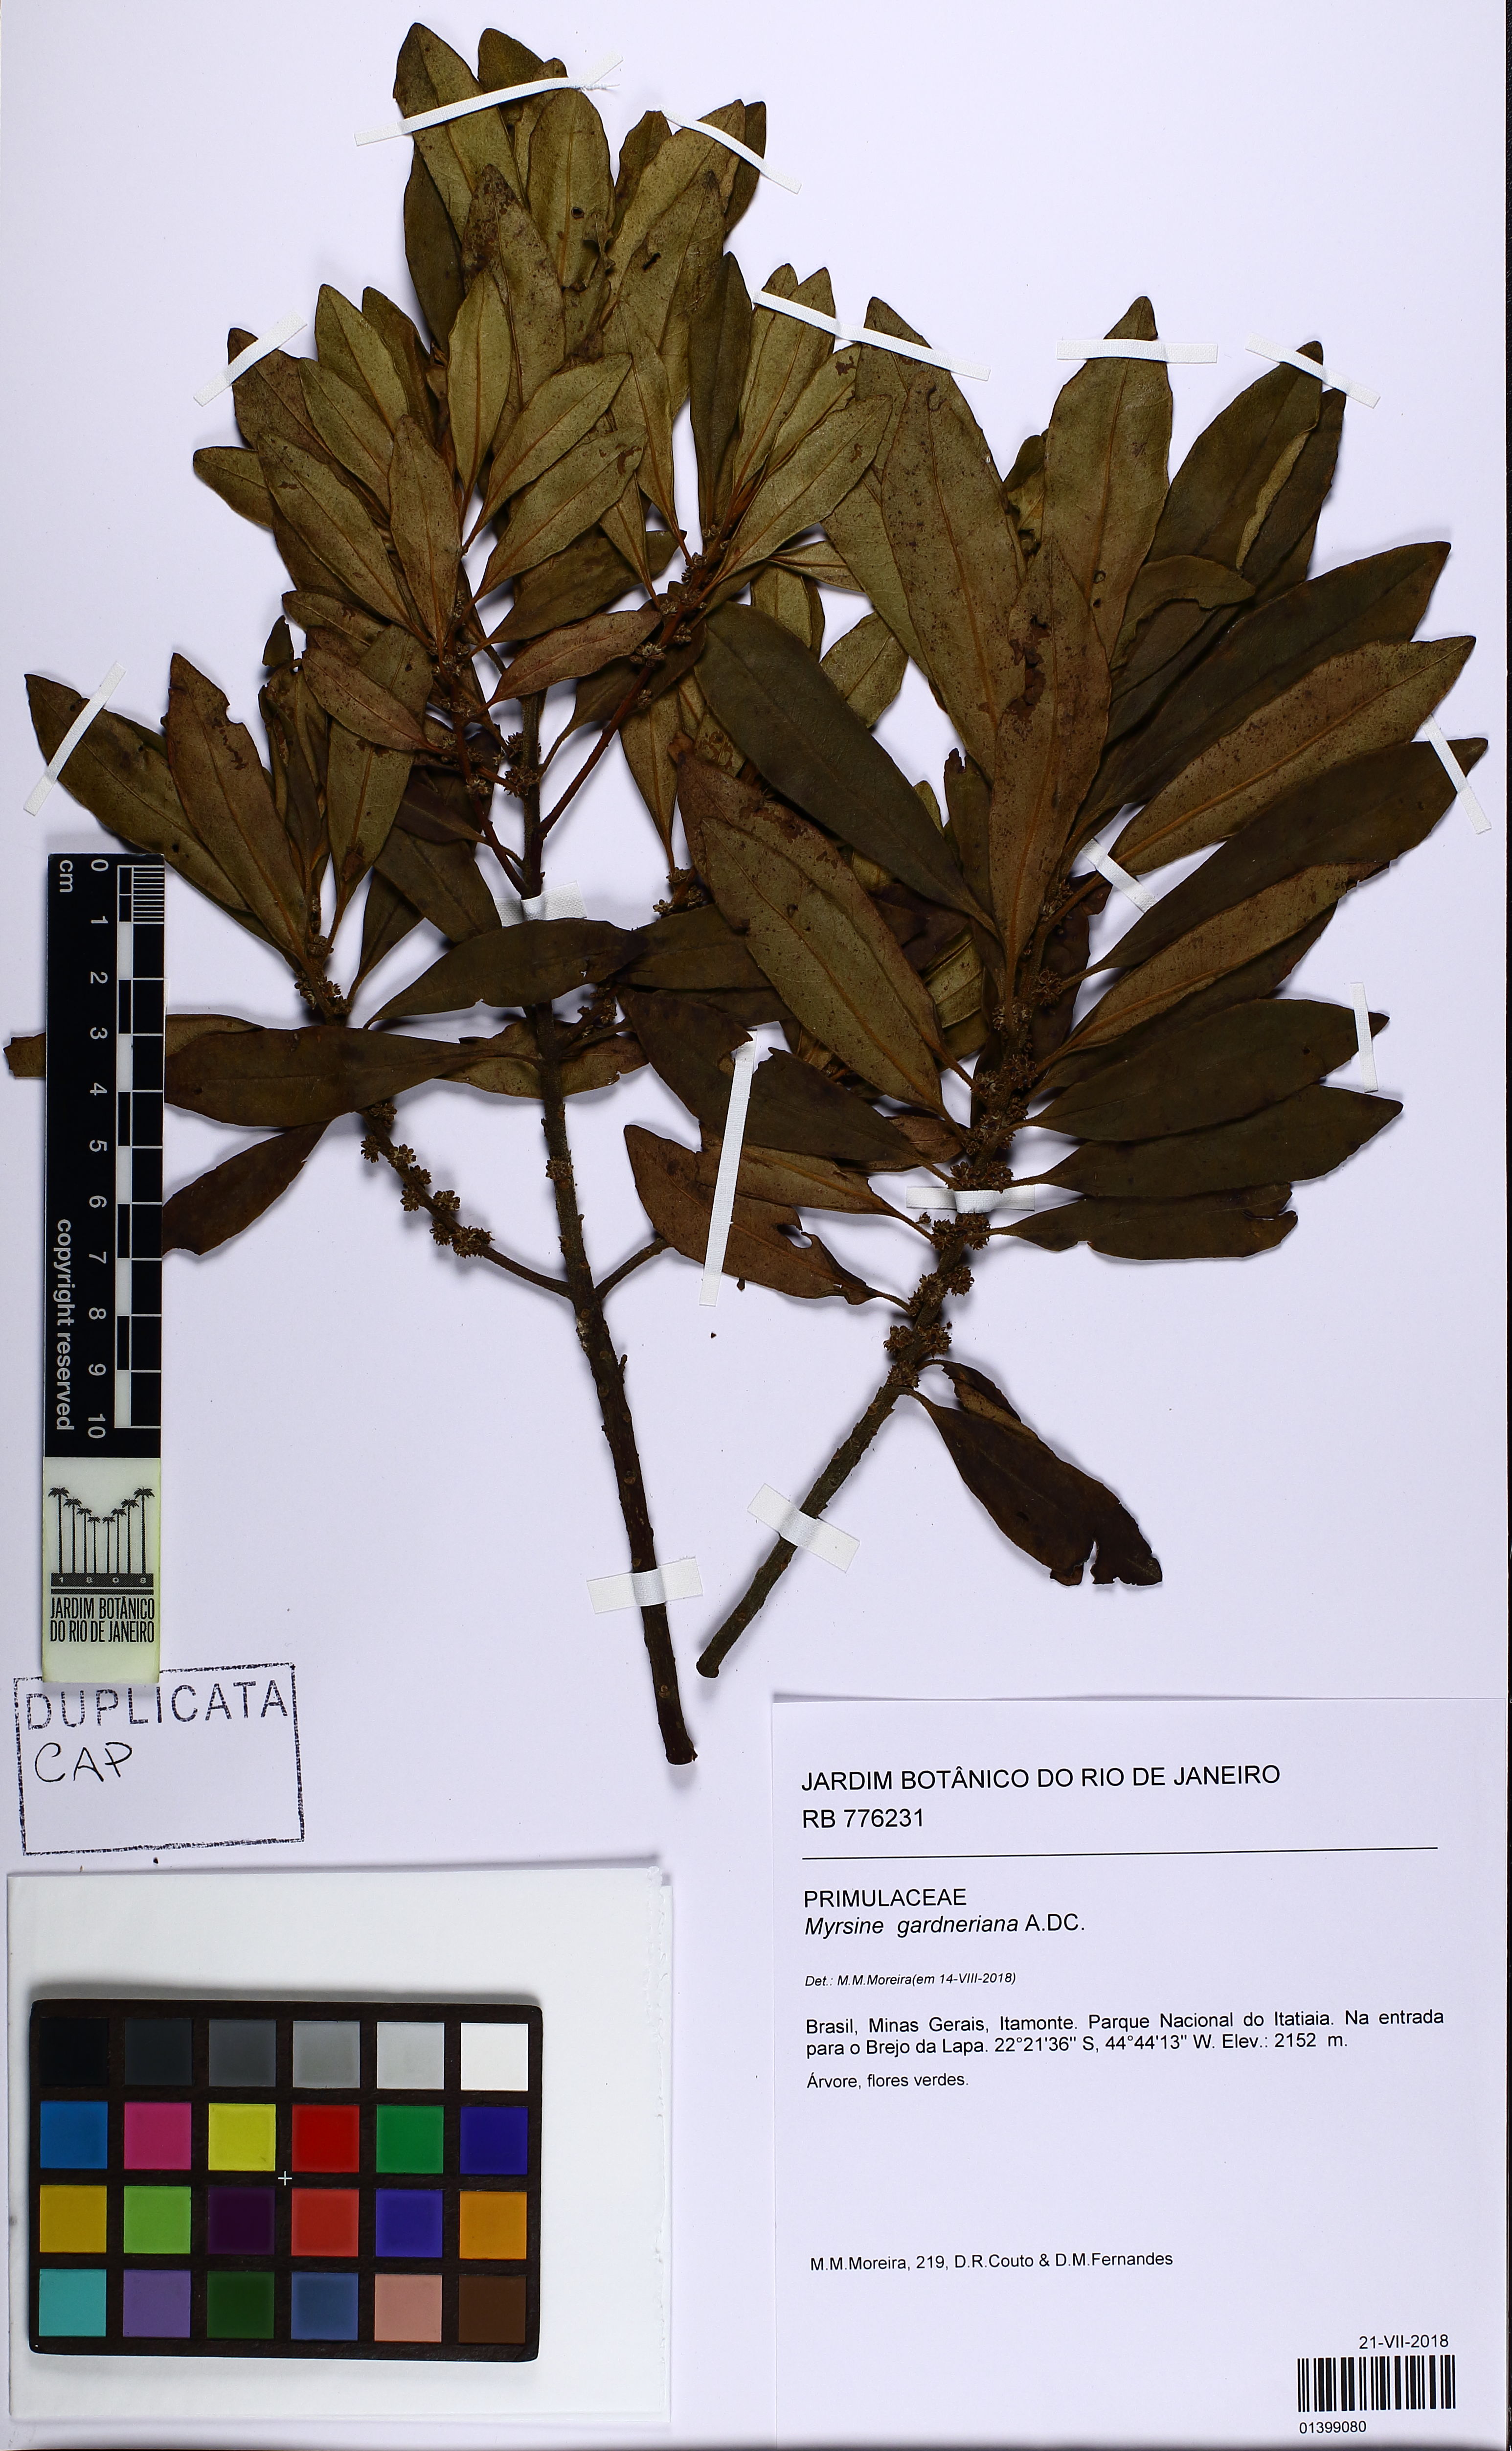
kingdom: Plantae
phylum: Tracheophyta
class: Magnoliopsida
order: Ericales
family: Primulaceae
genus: Myrsine
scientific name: Myrsine gardneriana
